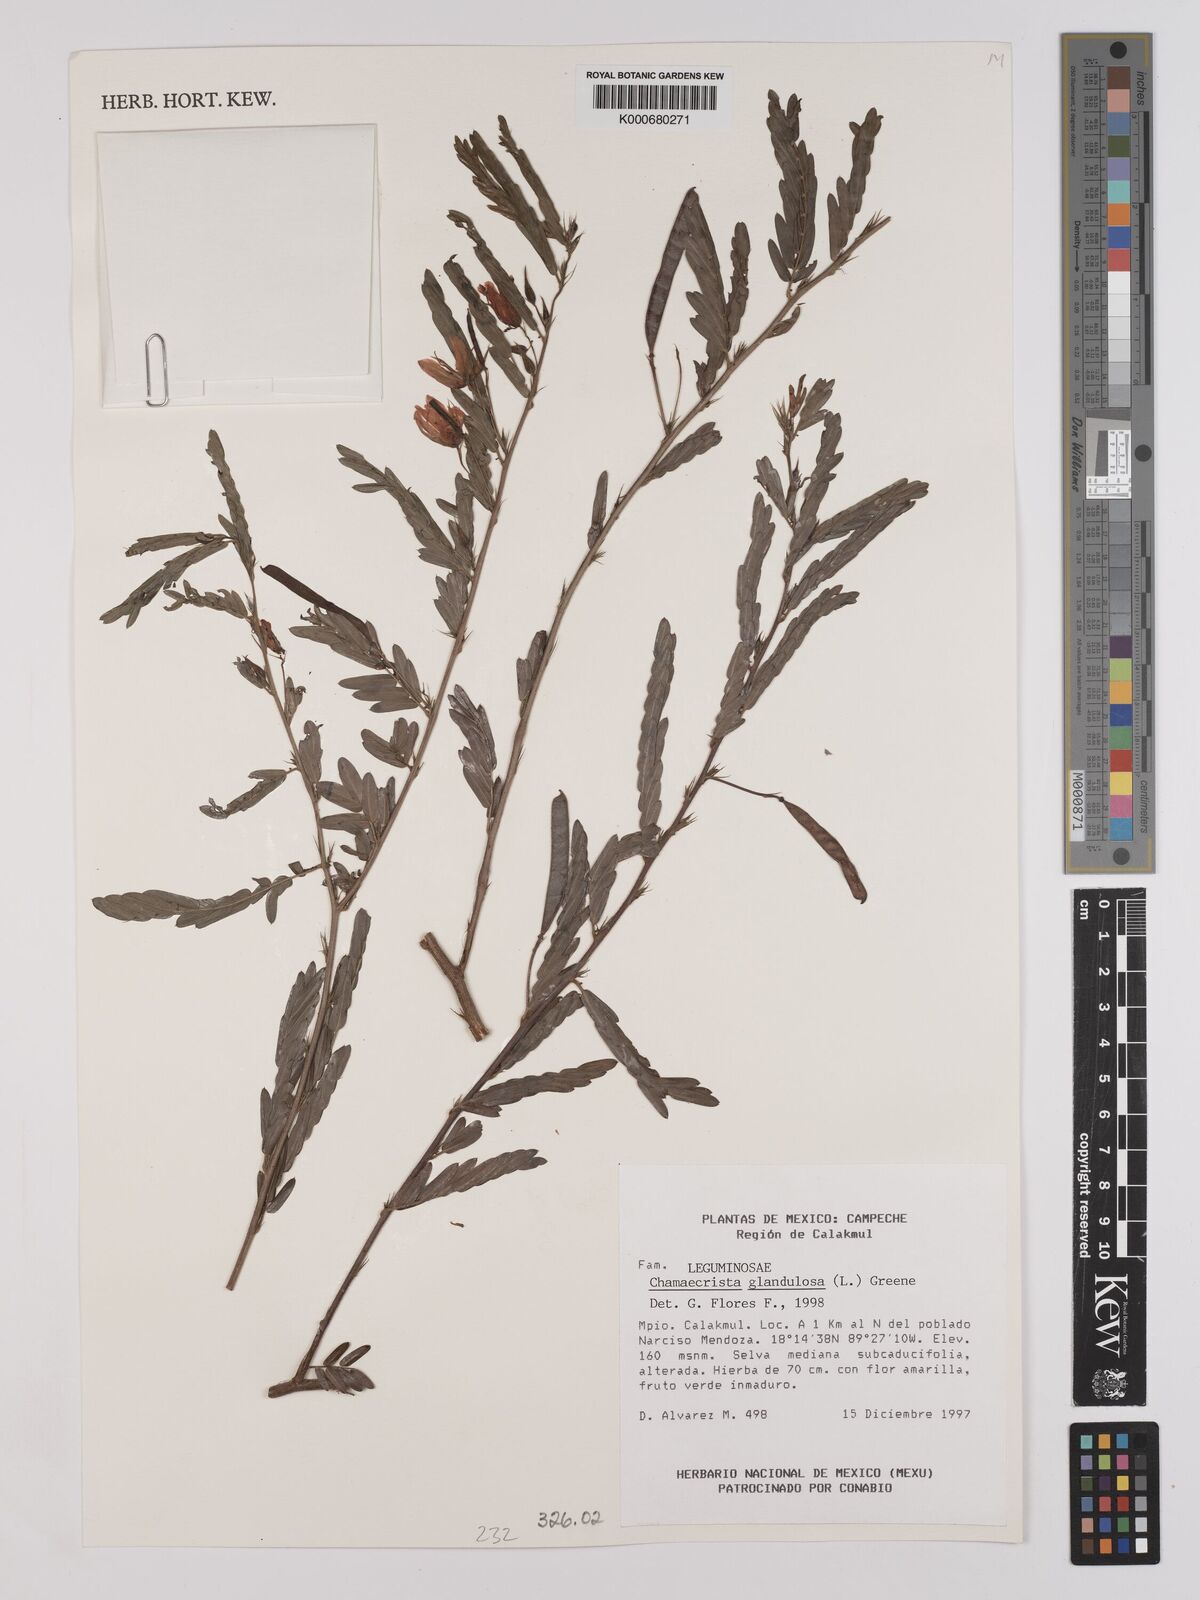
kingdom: Plantae
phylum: Tracheophyta
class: Magnoliopsida
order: Fabales
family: Fabaceae
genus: Chamaecrista
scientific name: Chamaecrista glandulosa
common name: Wild peas
